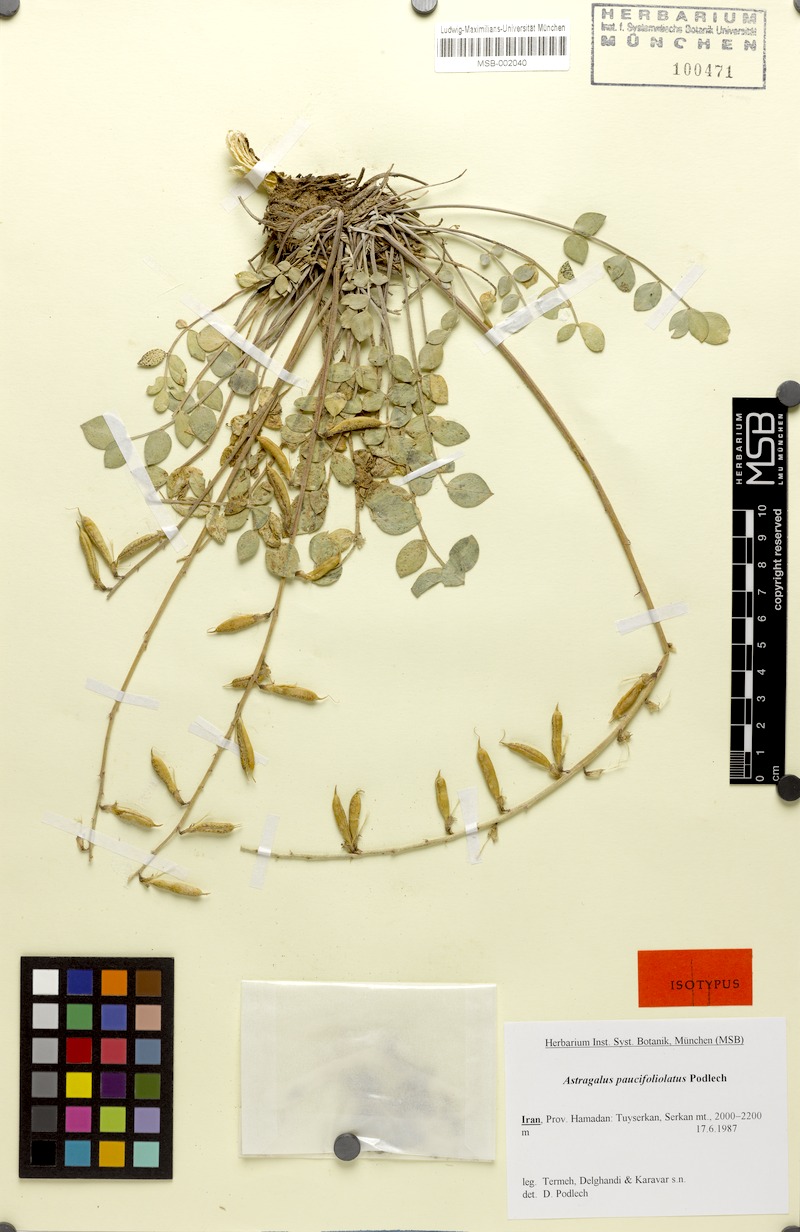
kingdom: Plantae
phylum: Tracheophyta
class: Magnoliopsida
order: Fabales
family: Fabaceae
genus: Astragalus
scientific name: Astragalus paucifoliolatus
